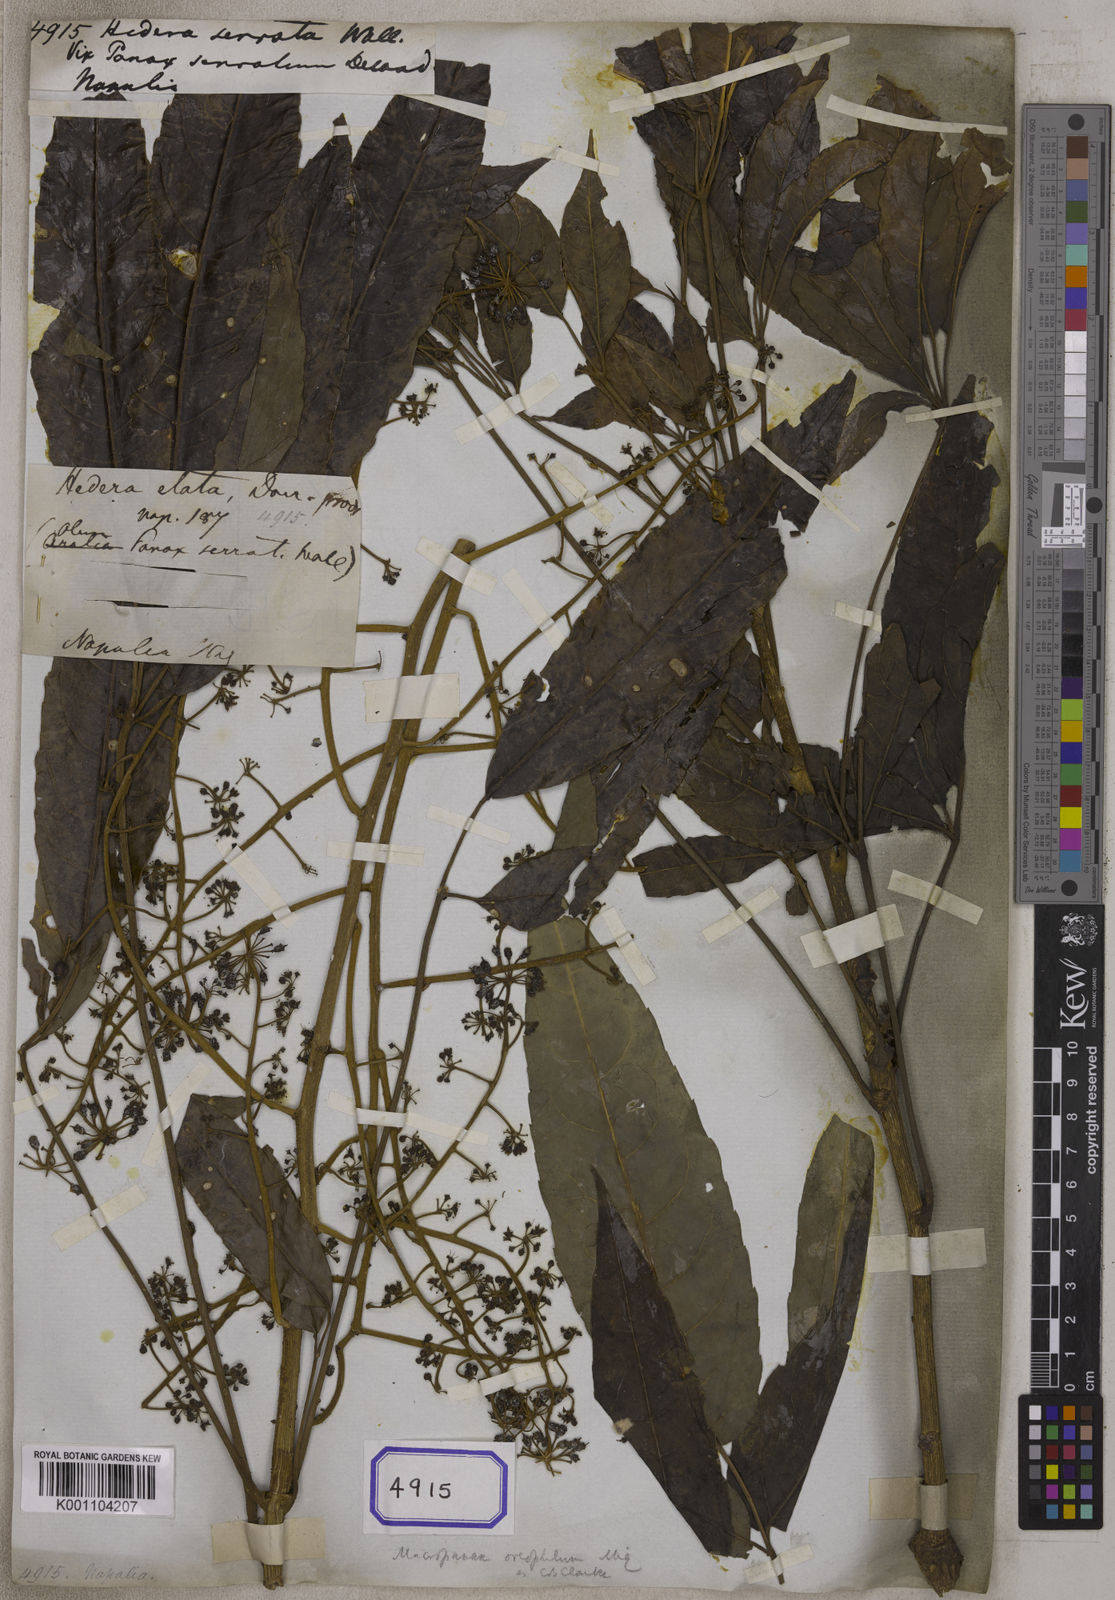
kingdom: Plantae
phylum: Tracheophyta
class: Magnoliopsida
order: Apiales
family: Araliaceae
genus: Macropanax
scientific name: Macropanax dispermus
